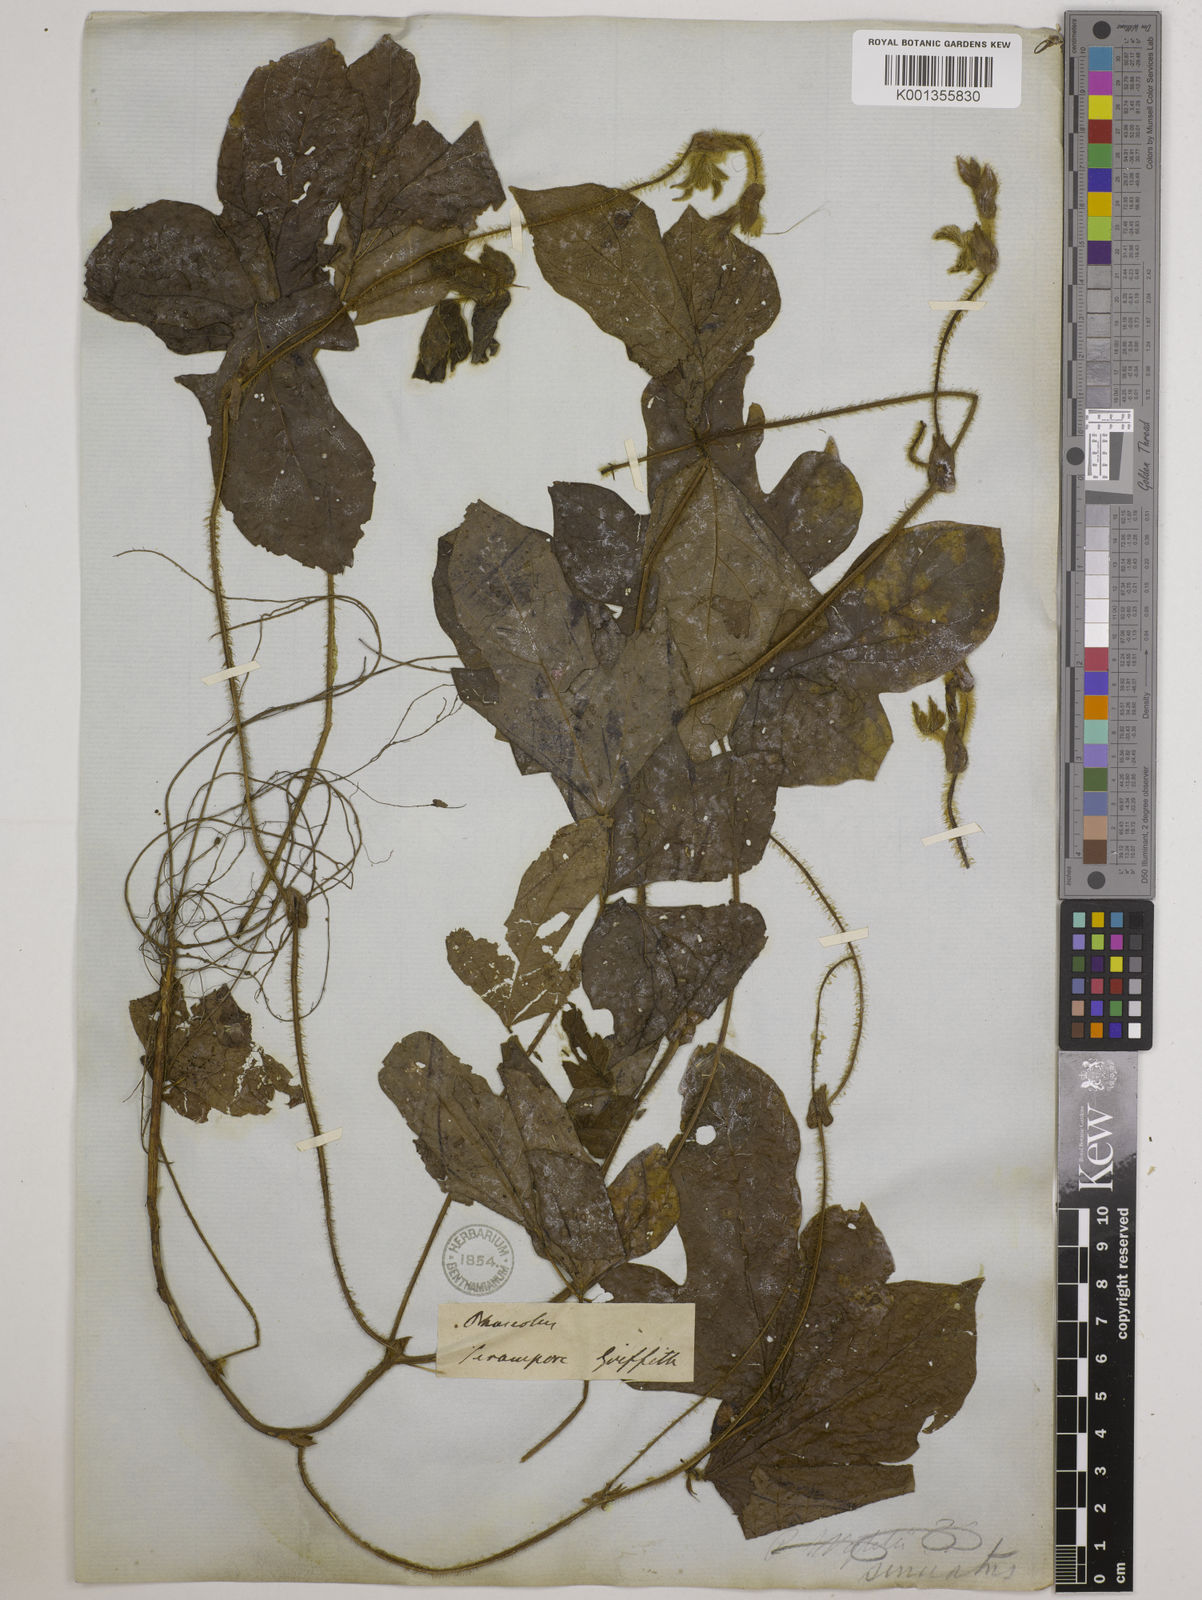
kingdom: Plantae
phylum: Tracheophyta
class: Magnoliopsida
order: Fabales
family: Fabaceae
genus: Vigna
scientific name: Vigna radiata
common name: Mung-bean
